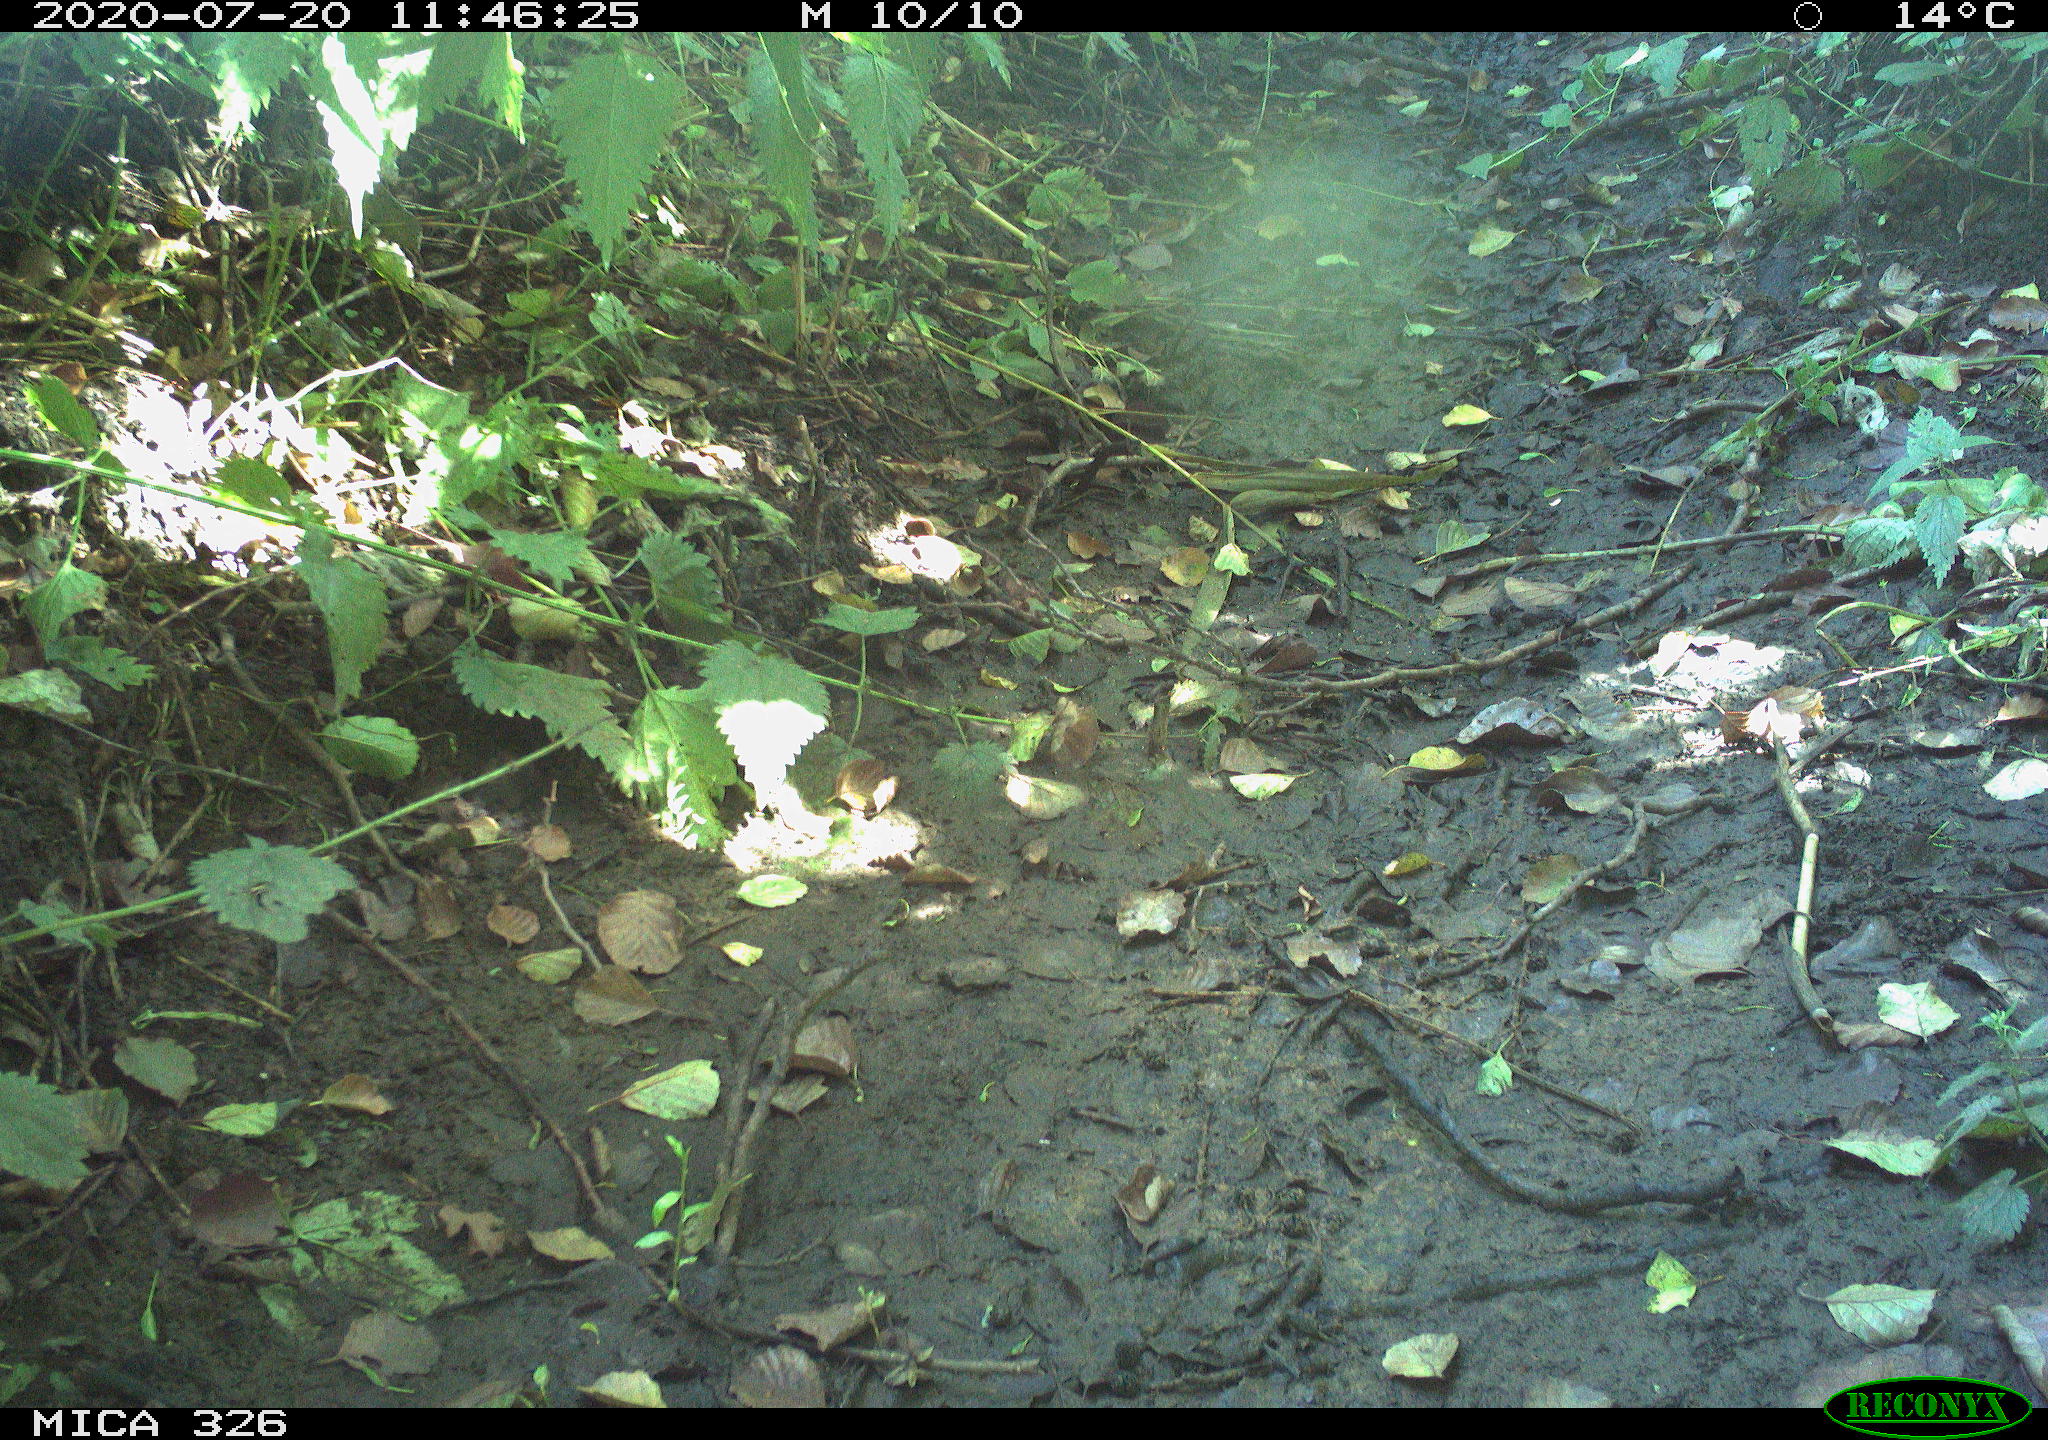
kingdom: Animalia
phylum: Chordata
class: Aves
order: Passeriformes
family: Turdidae
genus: Turdus
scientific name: Turdus philomelos
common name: Song thrush
